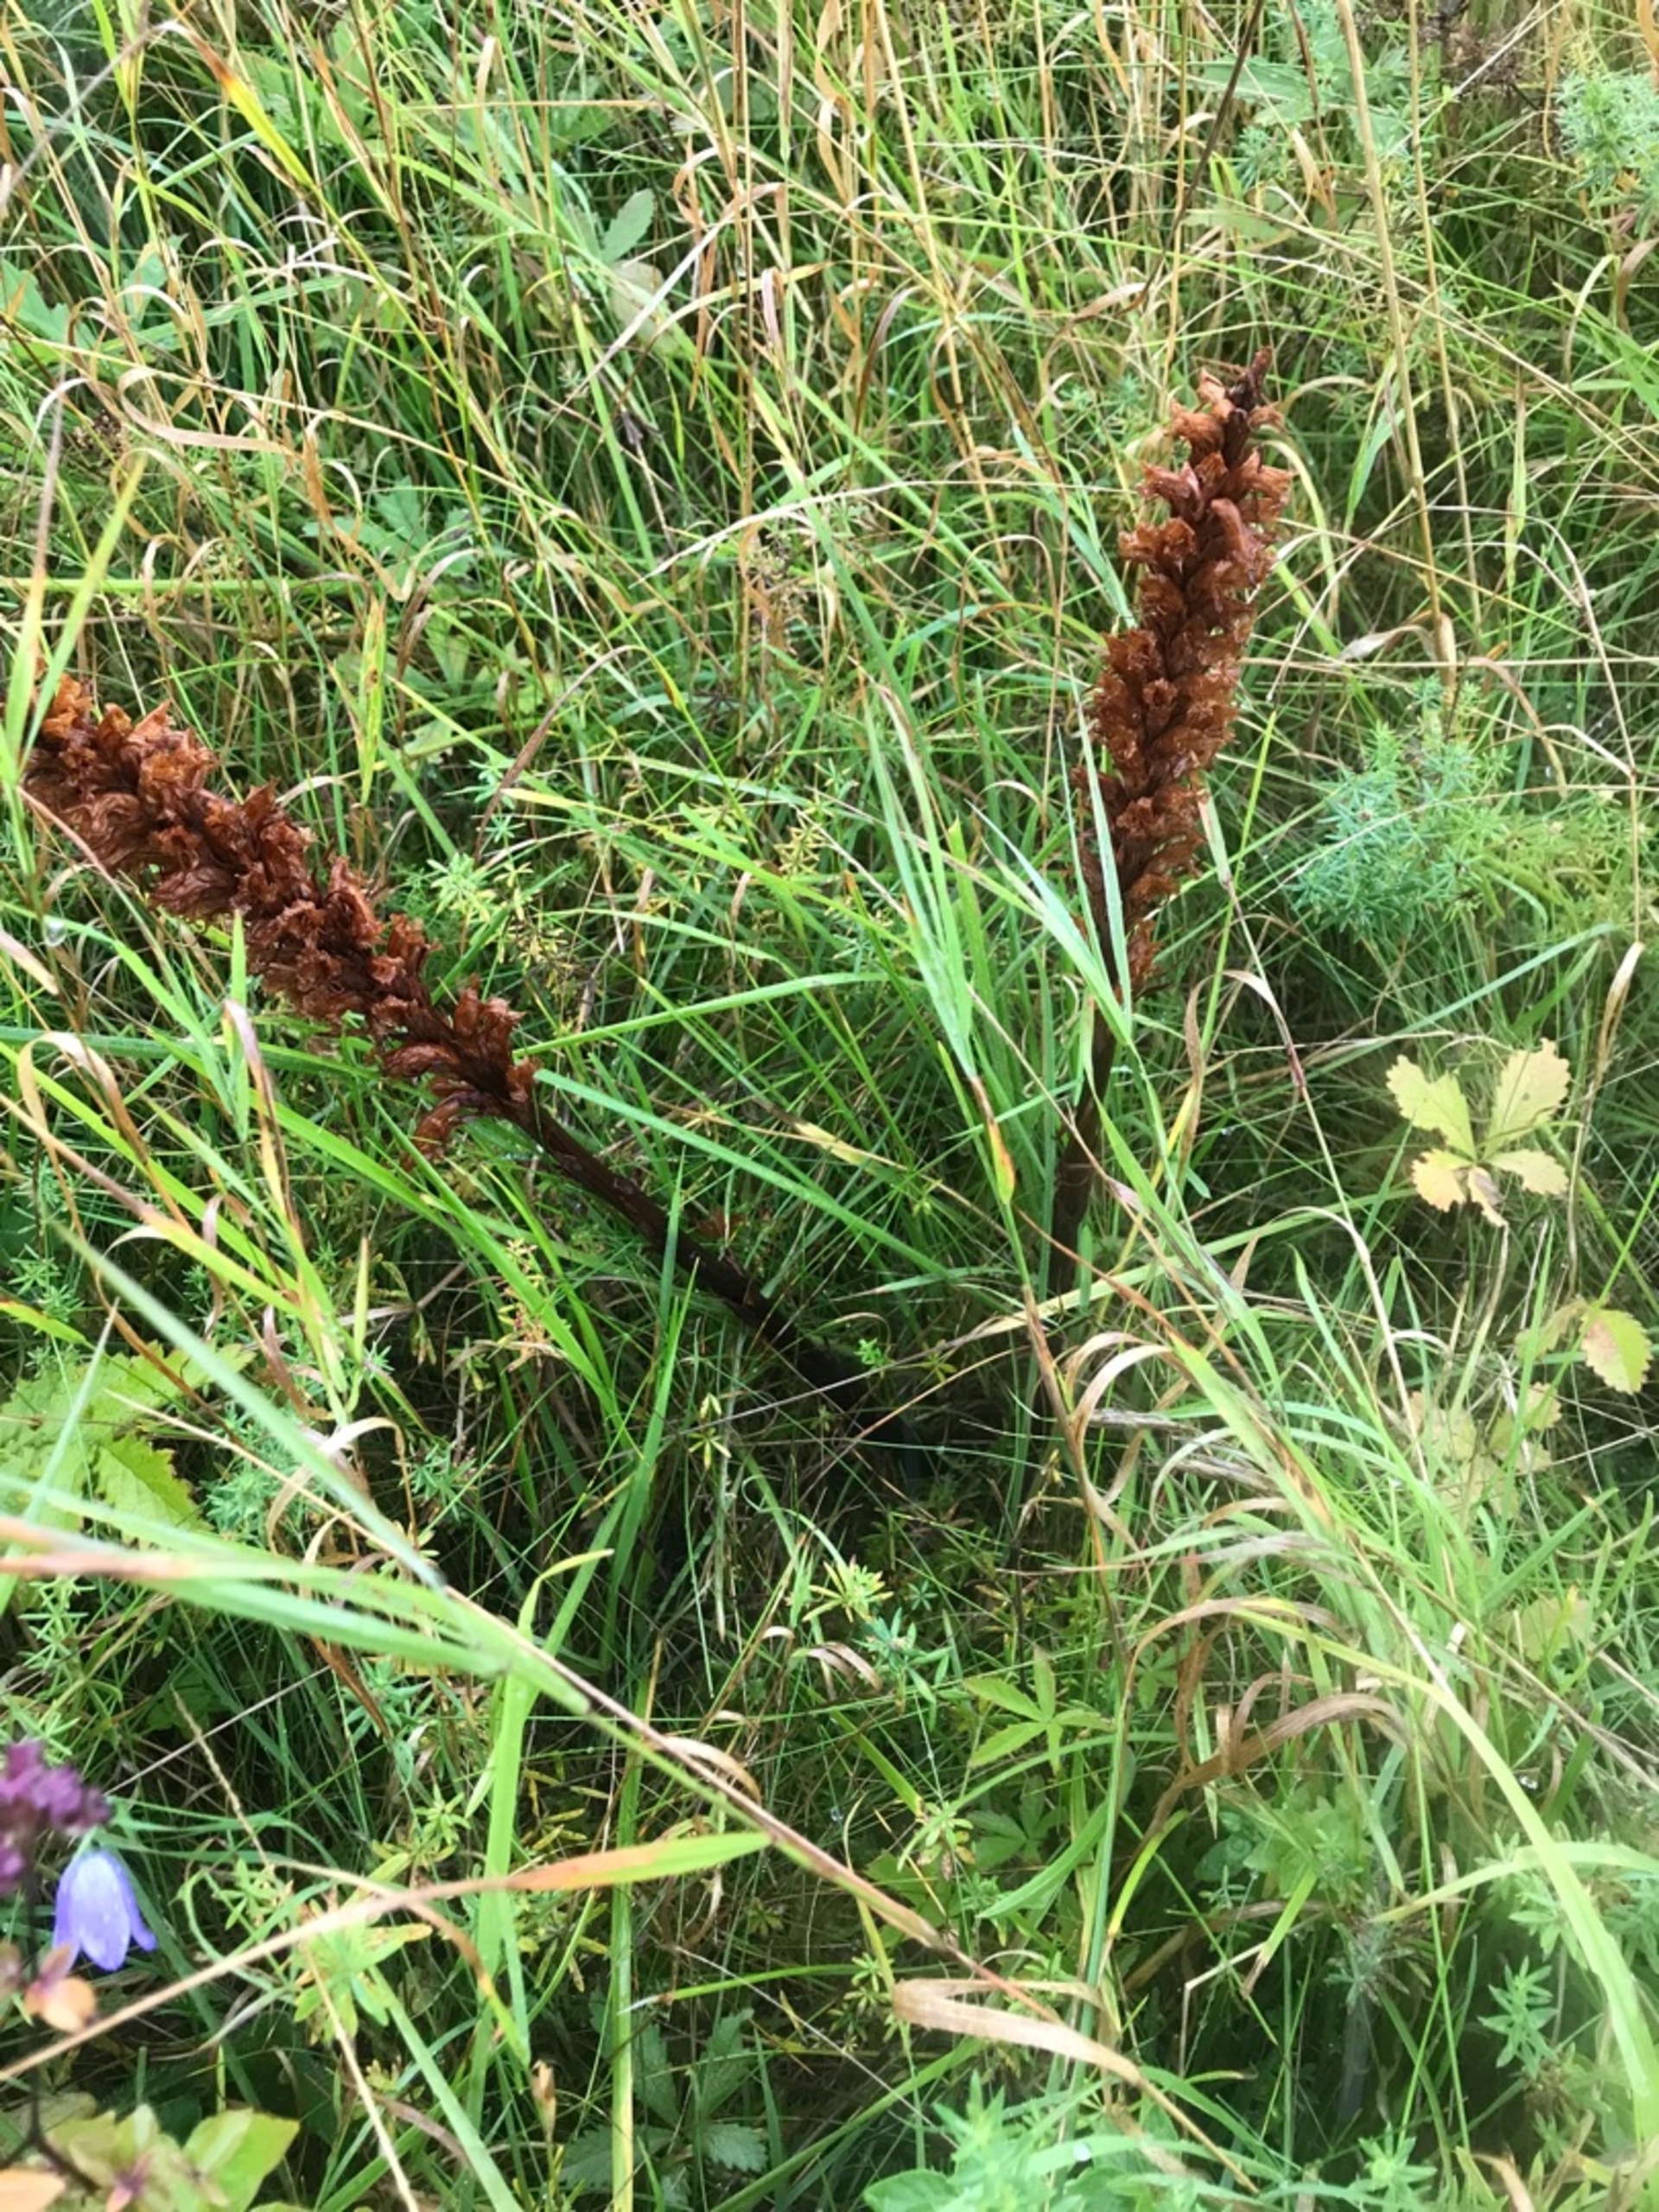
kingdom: Plantae
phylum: Tracheophyta
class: Magnoliopsida
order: Lamiales
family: Orobanchaceae
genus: Orobanche
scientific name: Orobanche elatior
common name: Stor gyvelkvæler
